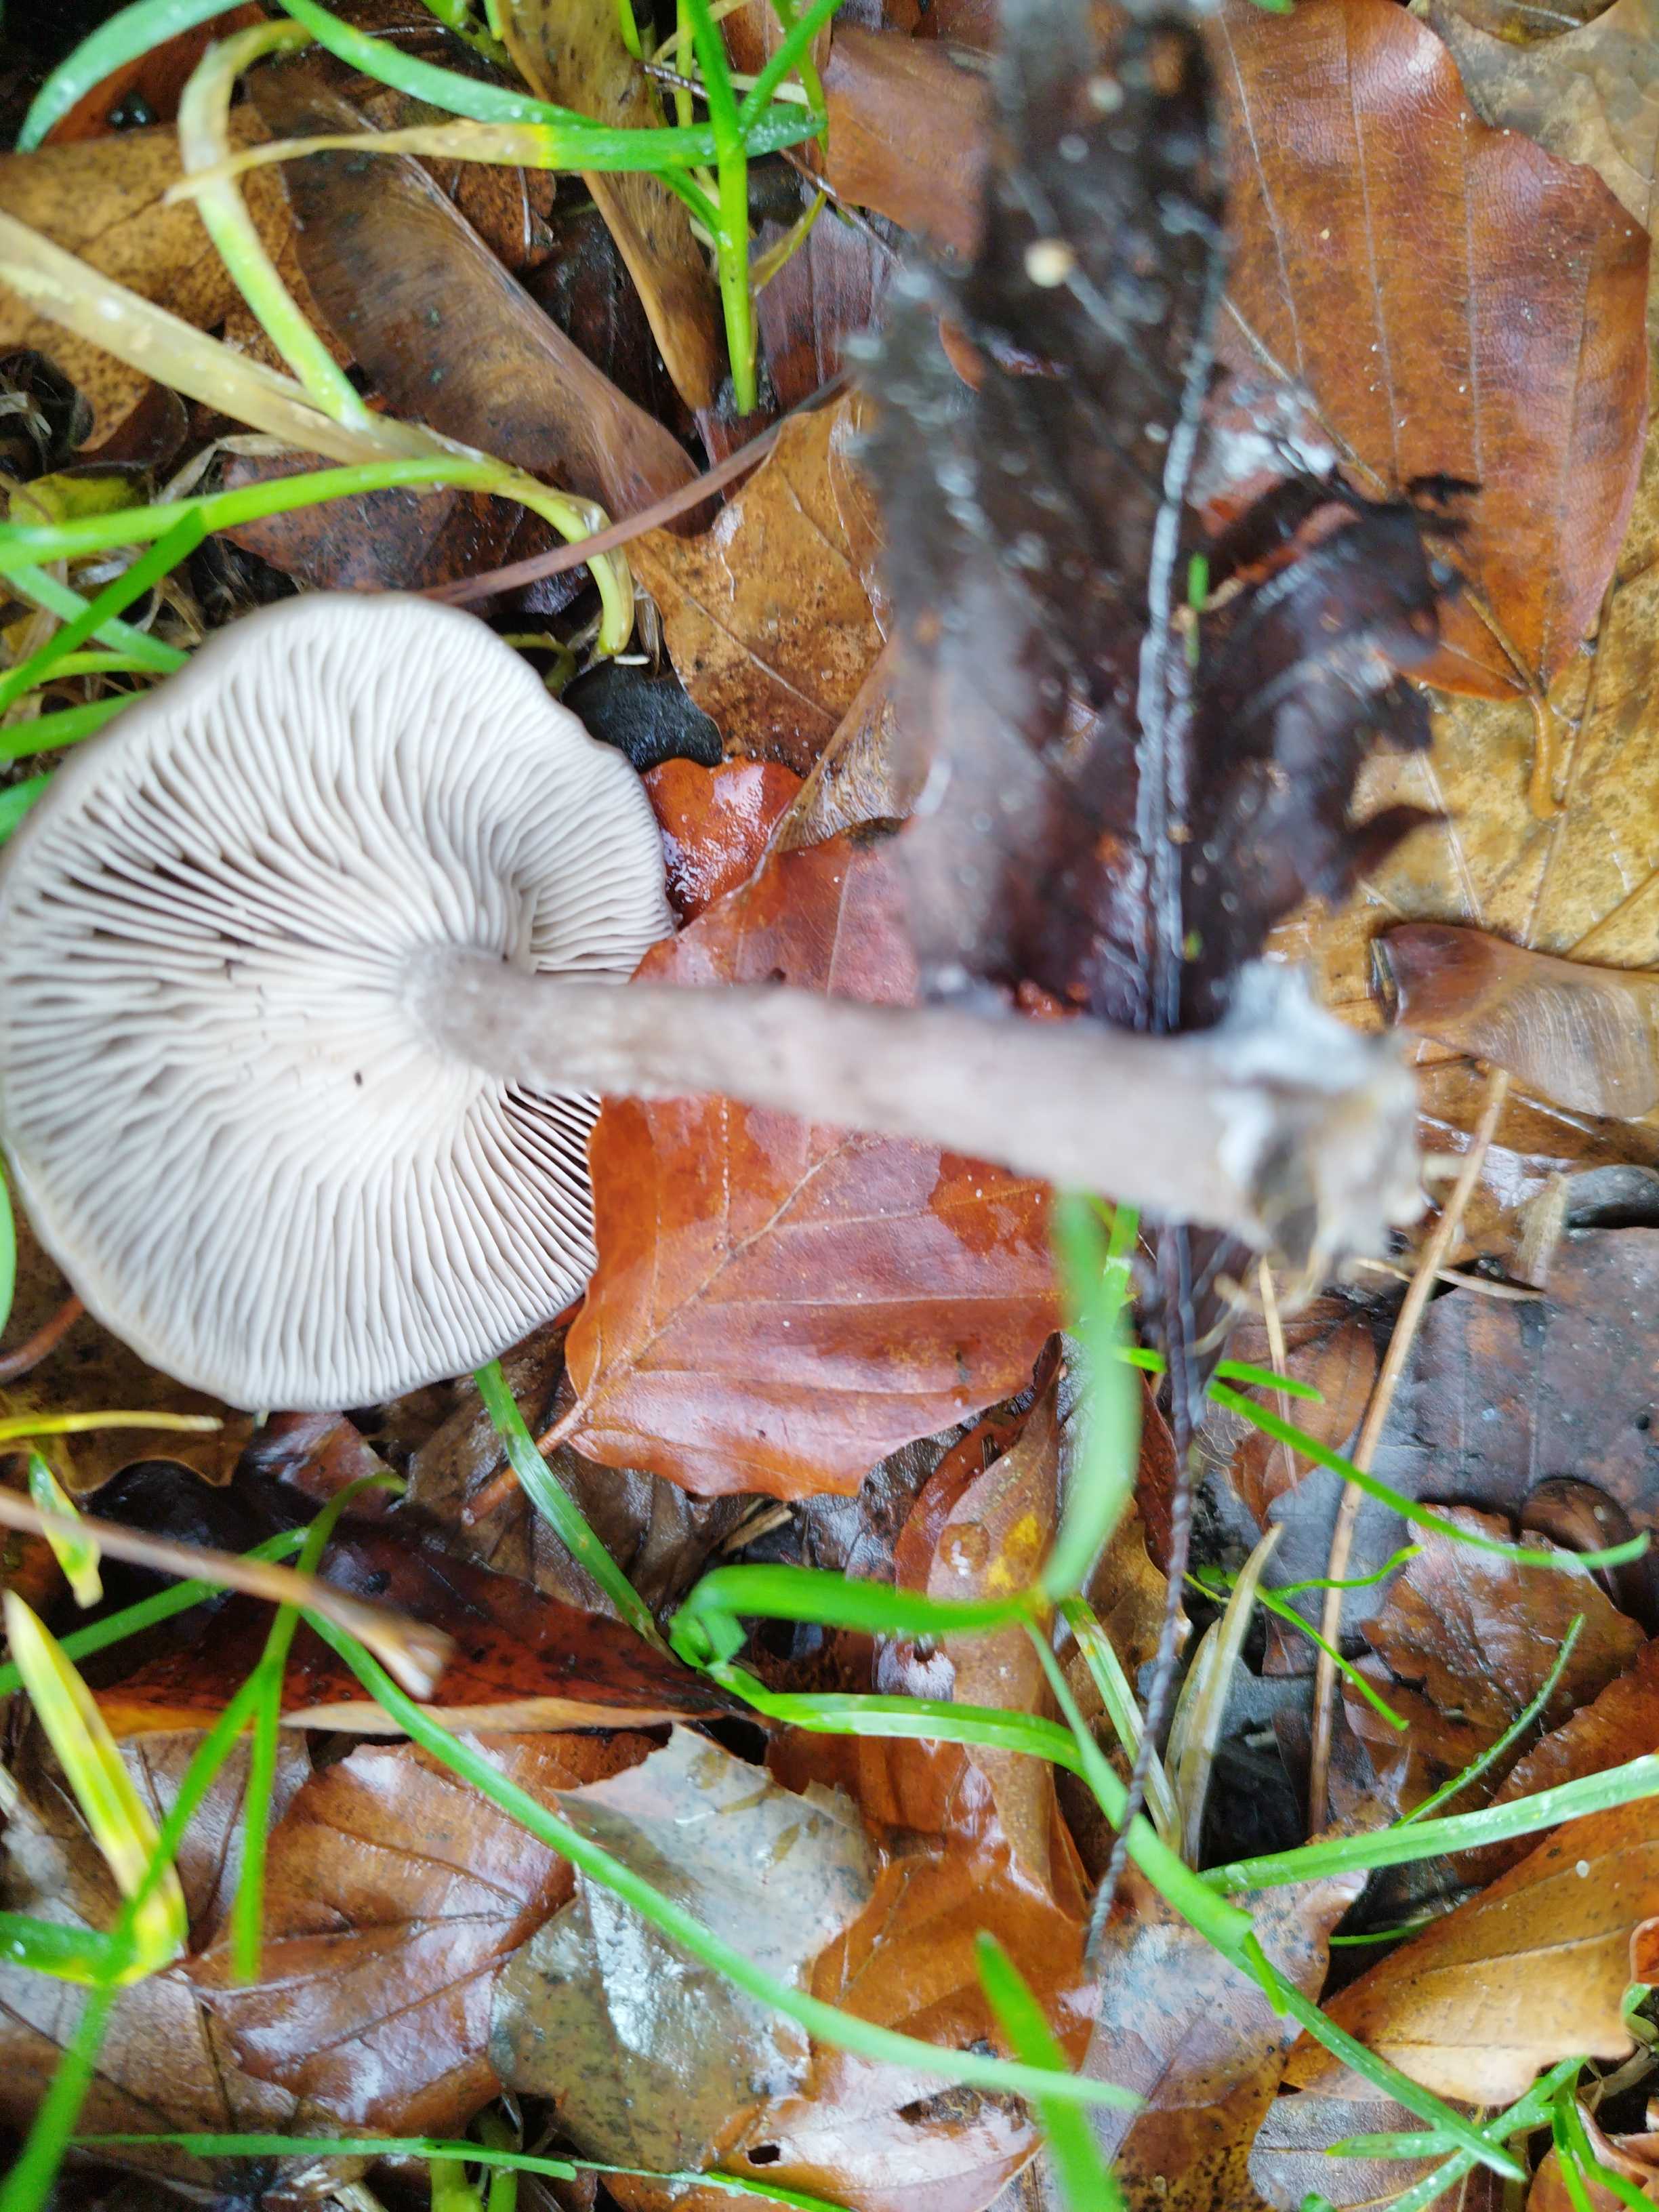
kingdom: Fungi
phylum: Basidiomycota
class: Agaricomycetes
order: Agaricales
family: Pseudoclitocybaceae
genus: Pseudoclitocybe
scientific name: Pseudoclitocybe cyathiformis
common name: almindelig bægertragthat
